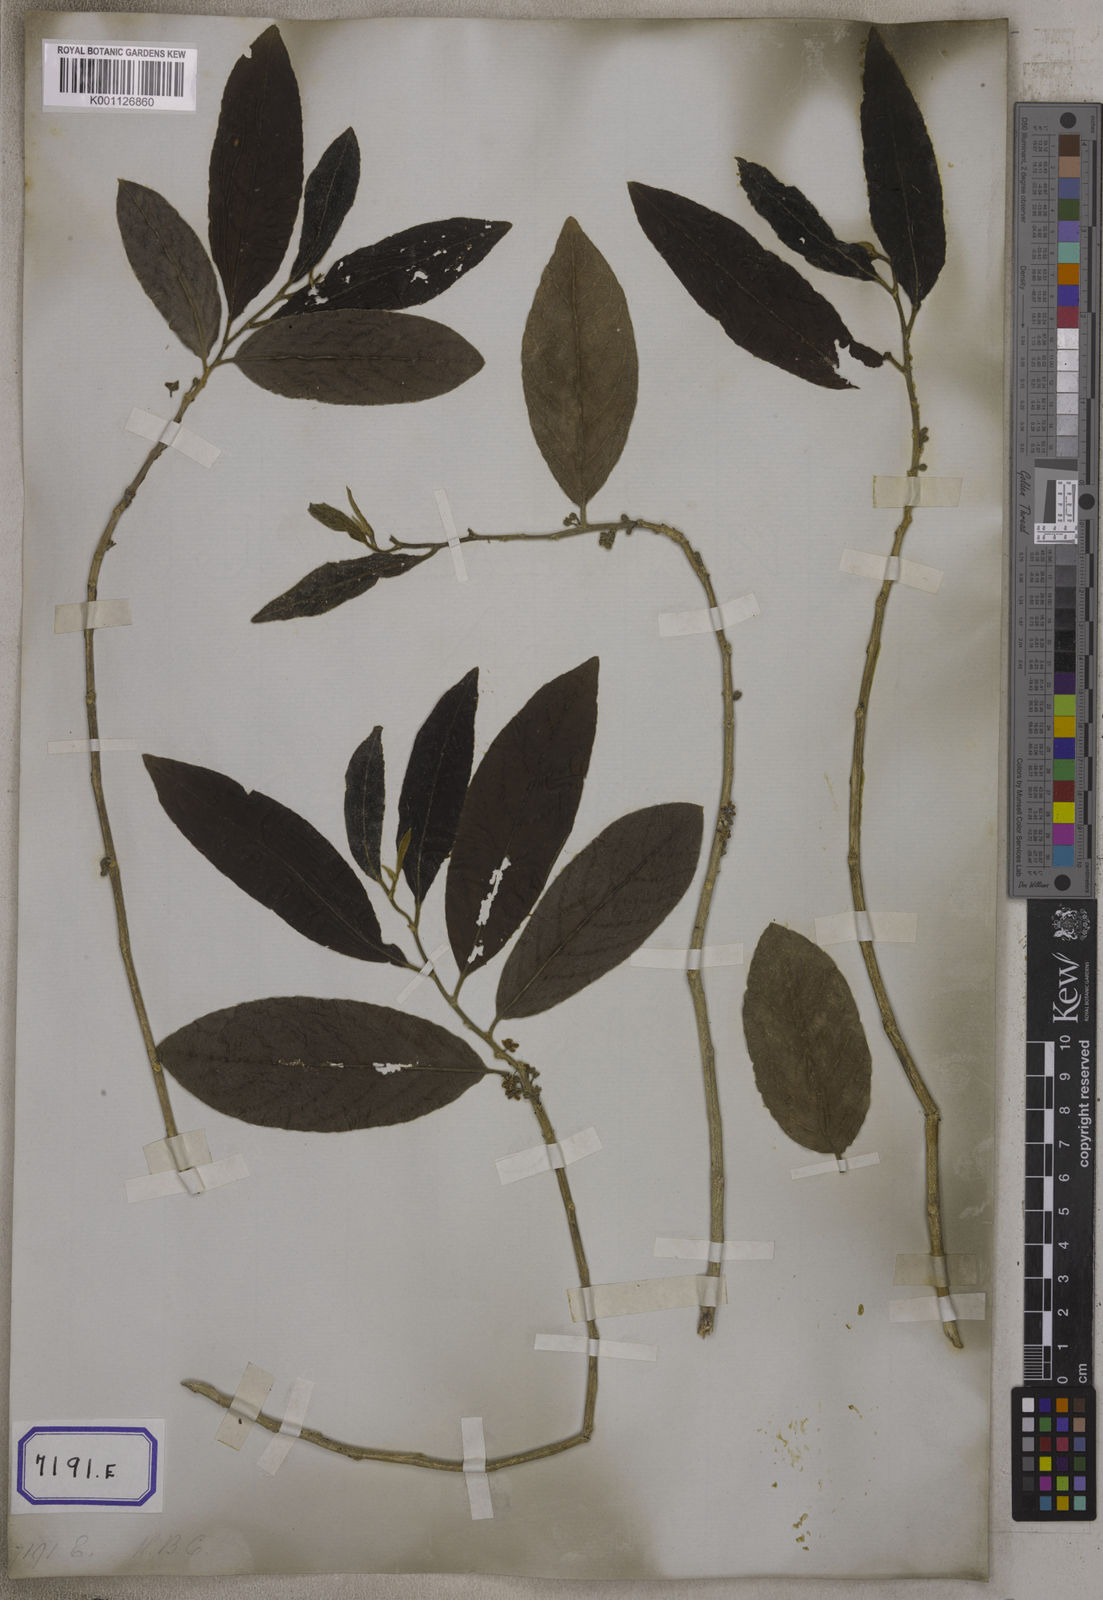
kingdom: Plantae
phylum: Tracheophyta
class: Magnoliopsida
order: Malpighiales
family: Salicaceae
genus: Casearia
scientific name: Casearia tomentosa
